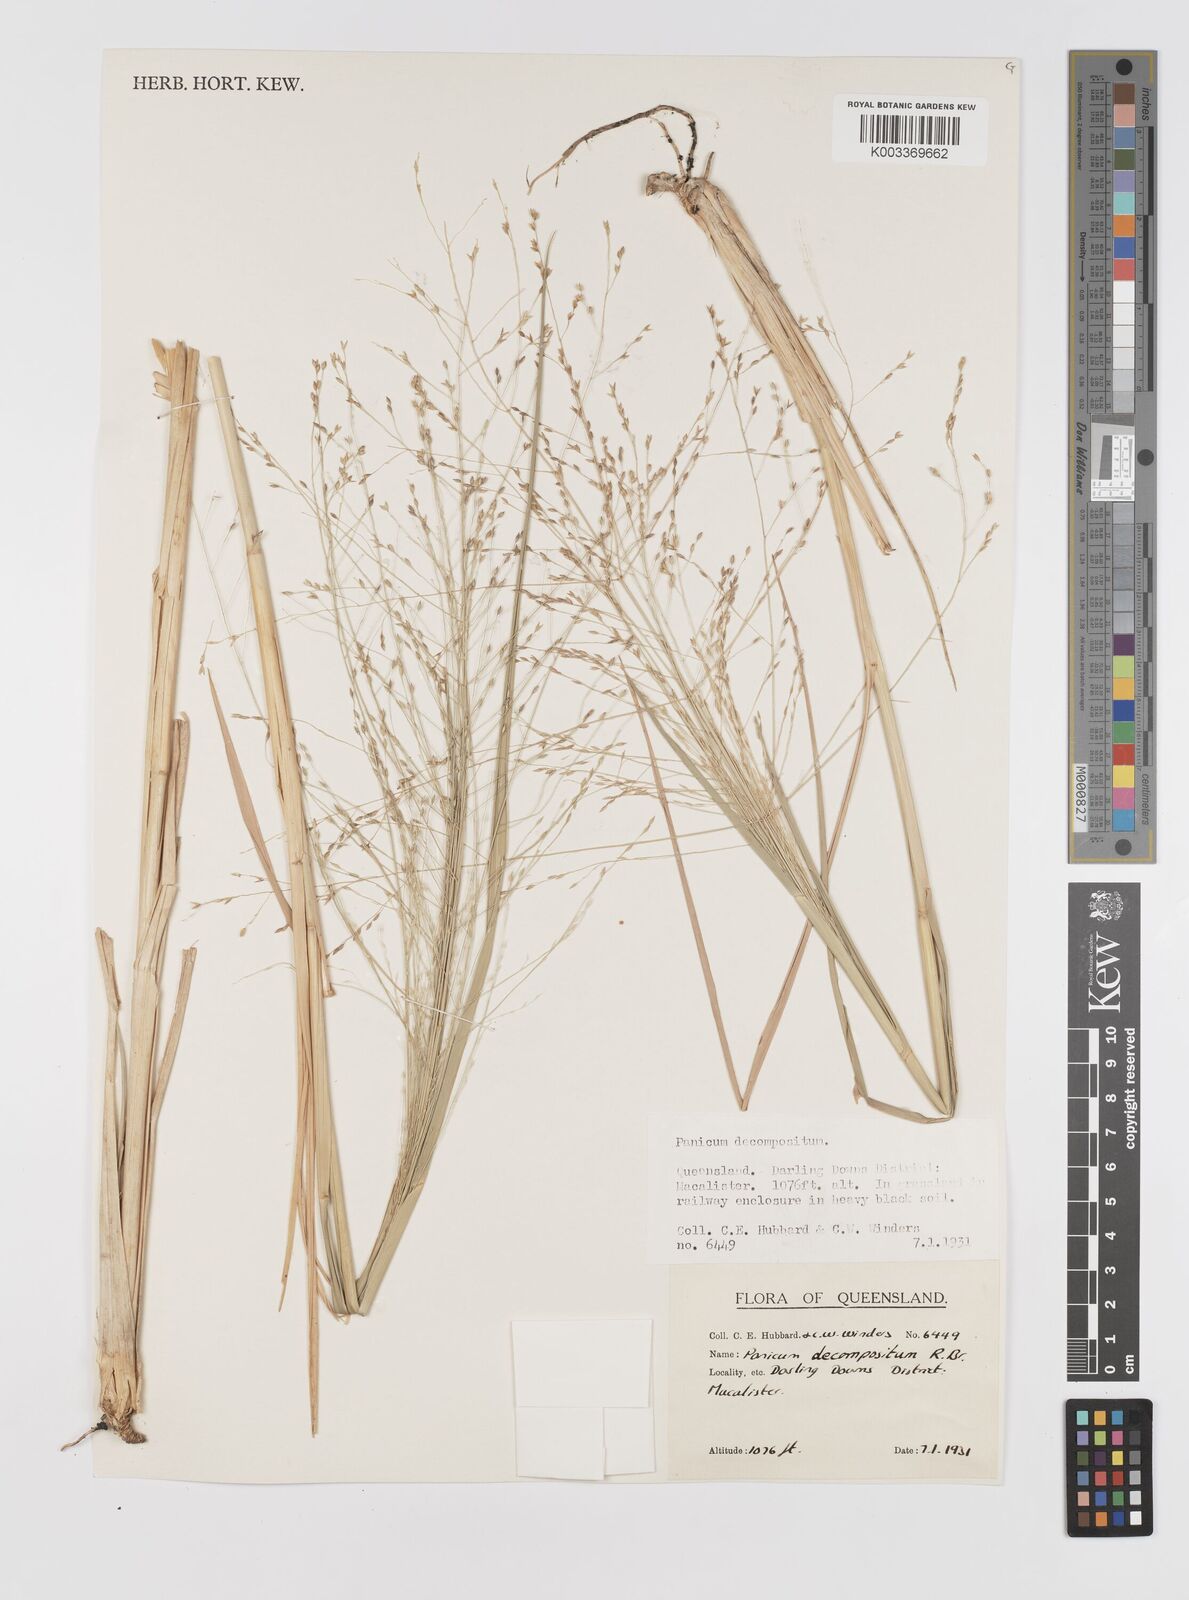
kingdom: Plantae
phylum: Tracheophyta
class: Liliopsida
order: Poales
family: Poaceae
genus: Panicum
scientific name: Panicum decompositum
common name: Australian millet
